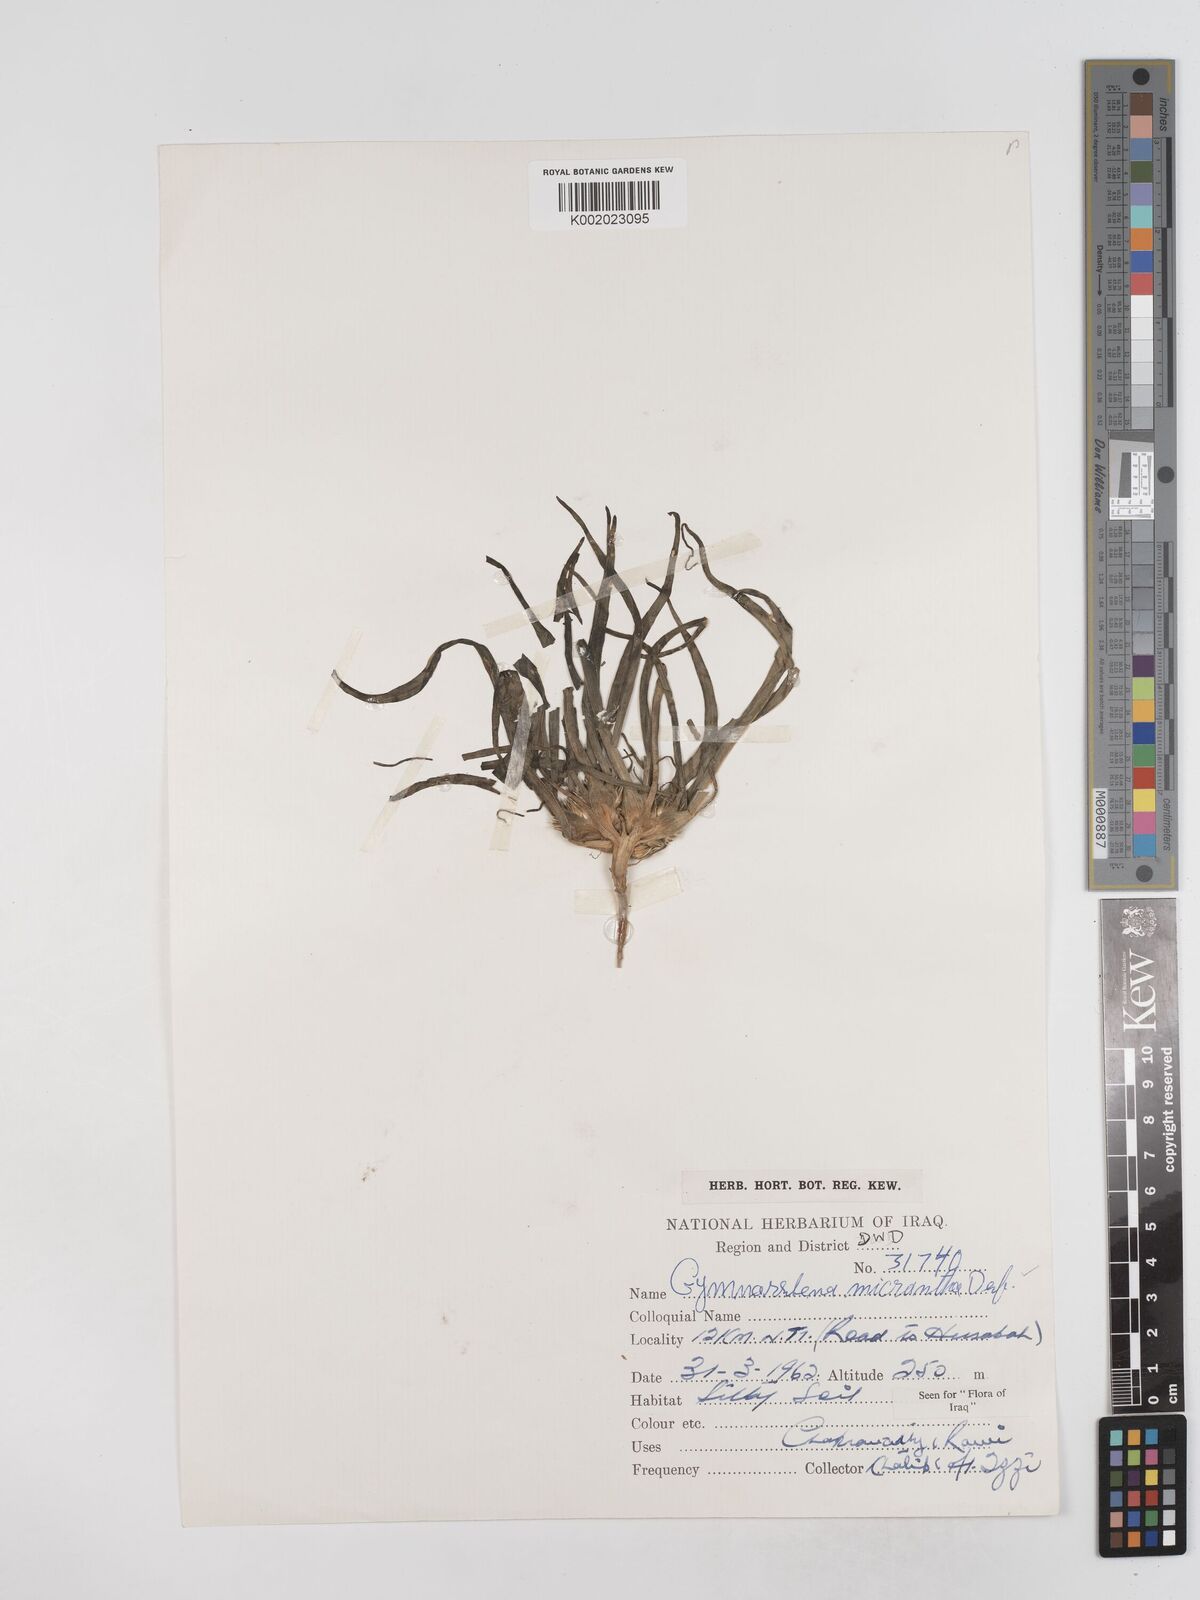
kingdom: Plantae
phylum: Tracheophyta
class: Magnoliopsida
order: Asterales
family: Asteraceae
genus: Gymnarrhena
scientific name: Gymnarrhena micrantha
